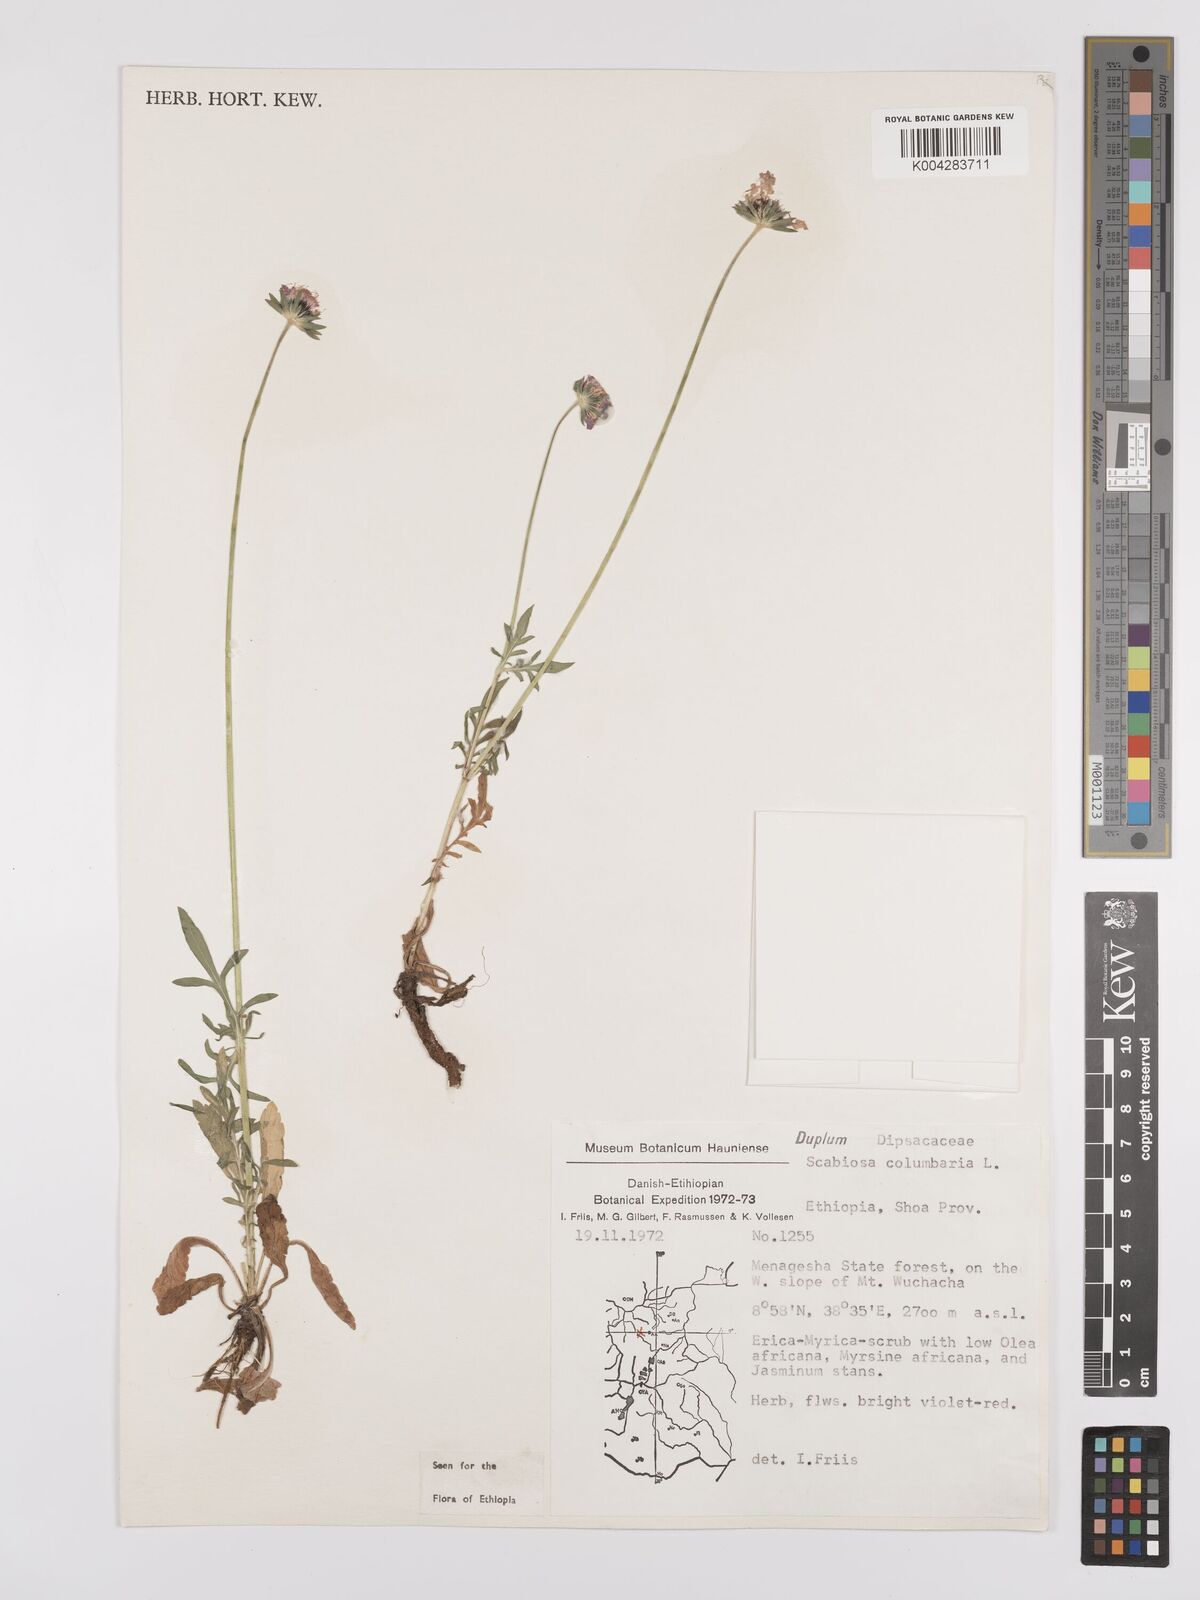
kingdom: Plantae
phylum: Tracheophyta
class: Magnoliopsida
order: Dipsacales
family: Caprifoliaceae
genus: Scabiosa
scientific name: Scabiosa columbaria
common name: Small scabious
